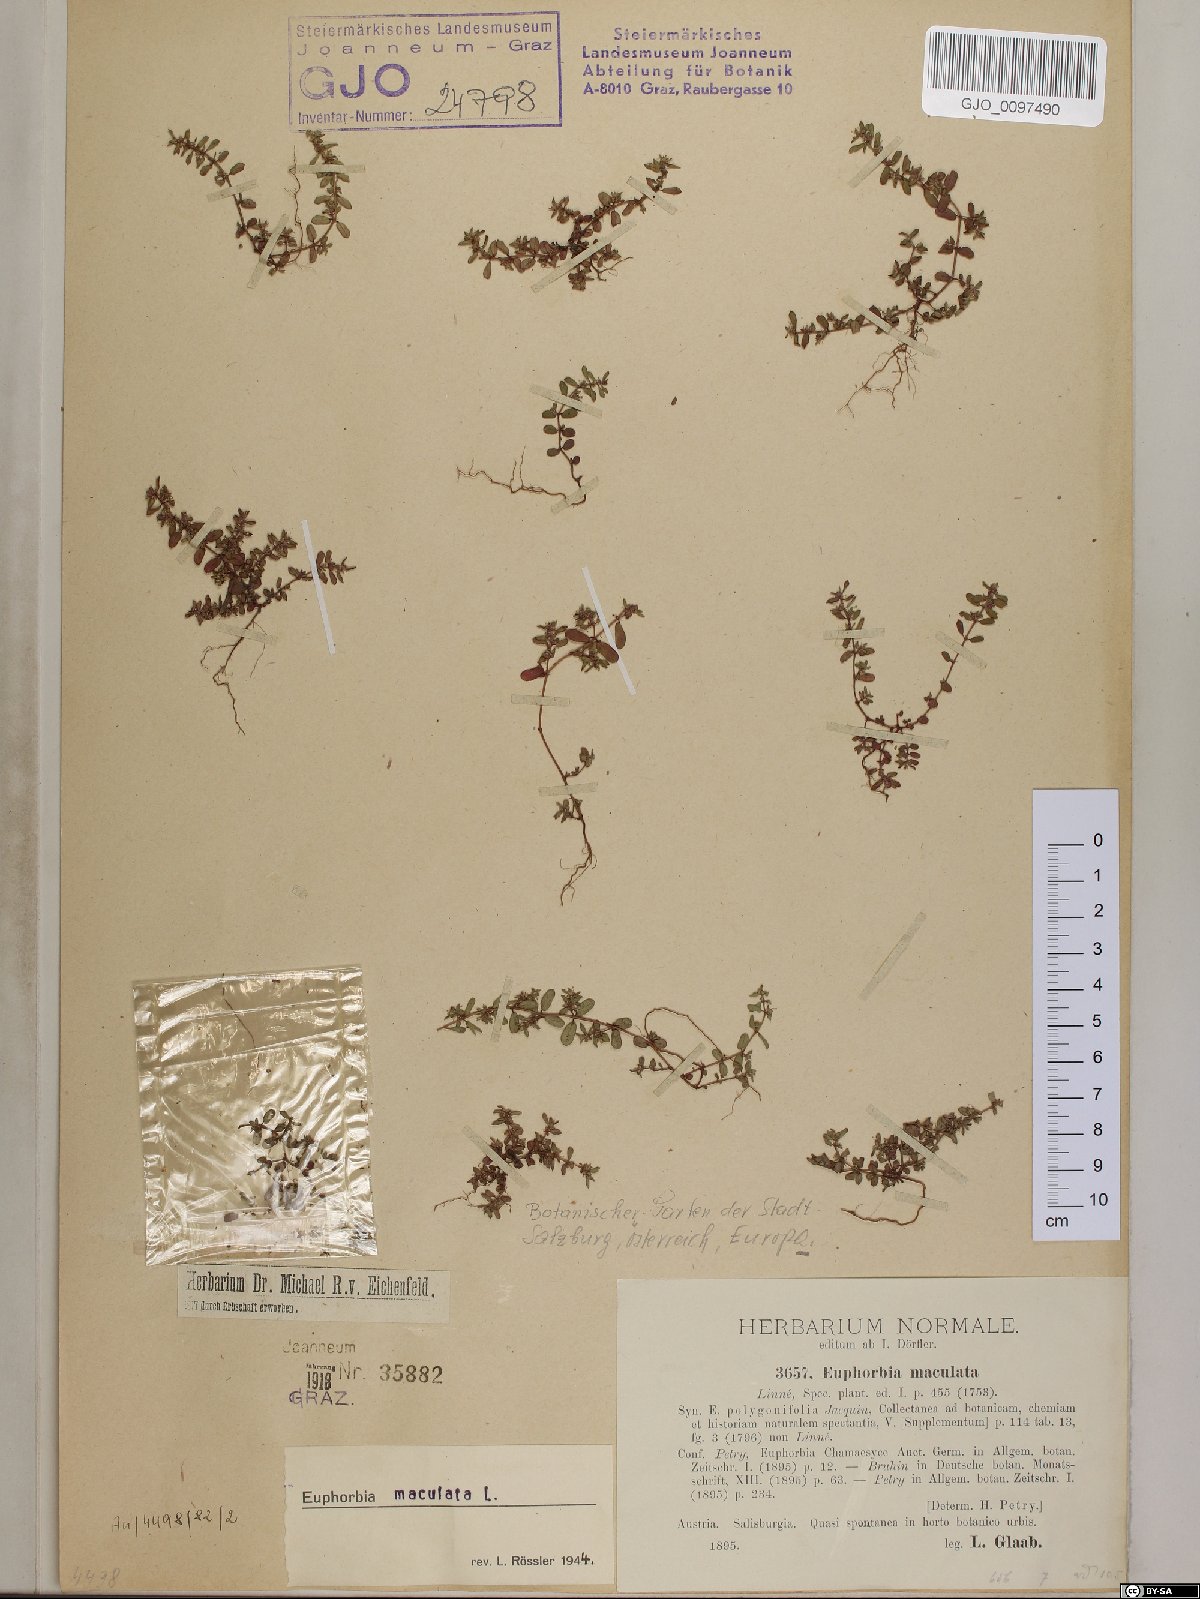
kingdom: Plantae
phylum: Tracheophyta
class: Magnoliopsida
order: Malpighiales
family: Euphorbiaceae
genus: Euphorbia
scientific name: Euphorbia maculata
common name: Spotted spurge
